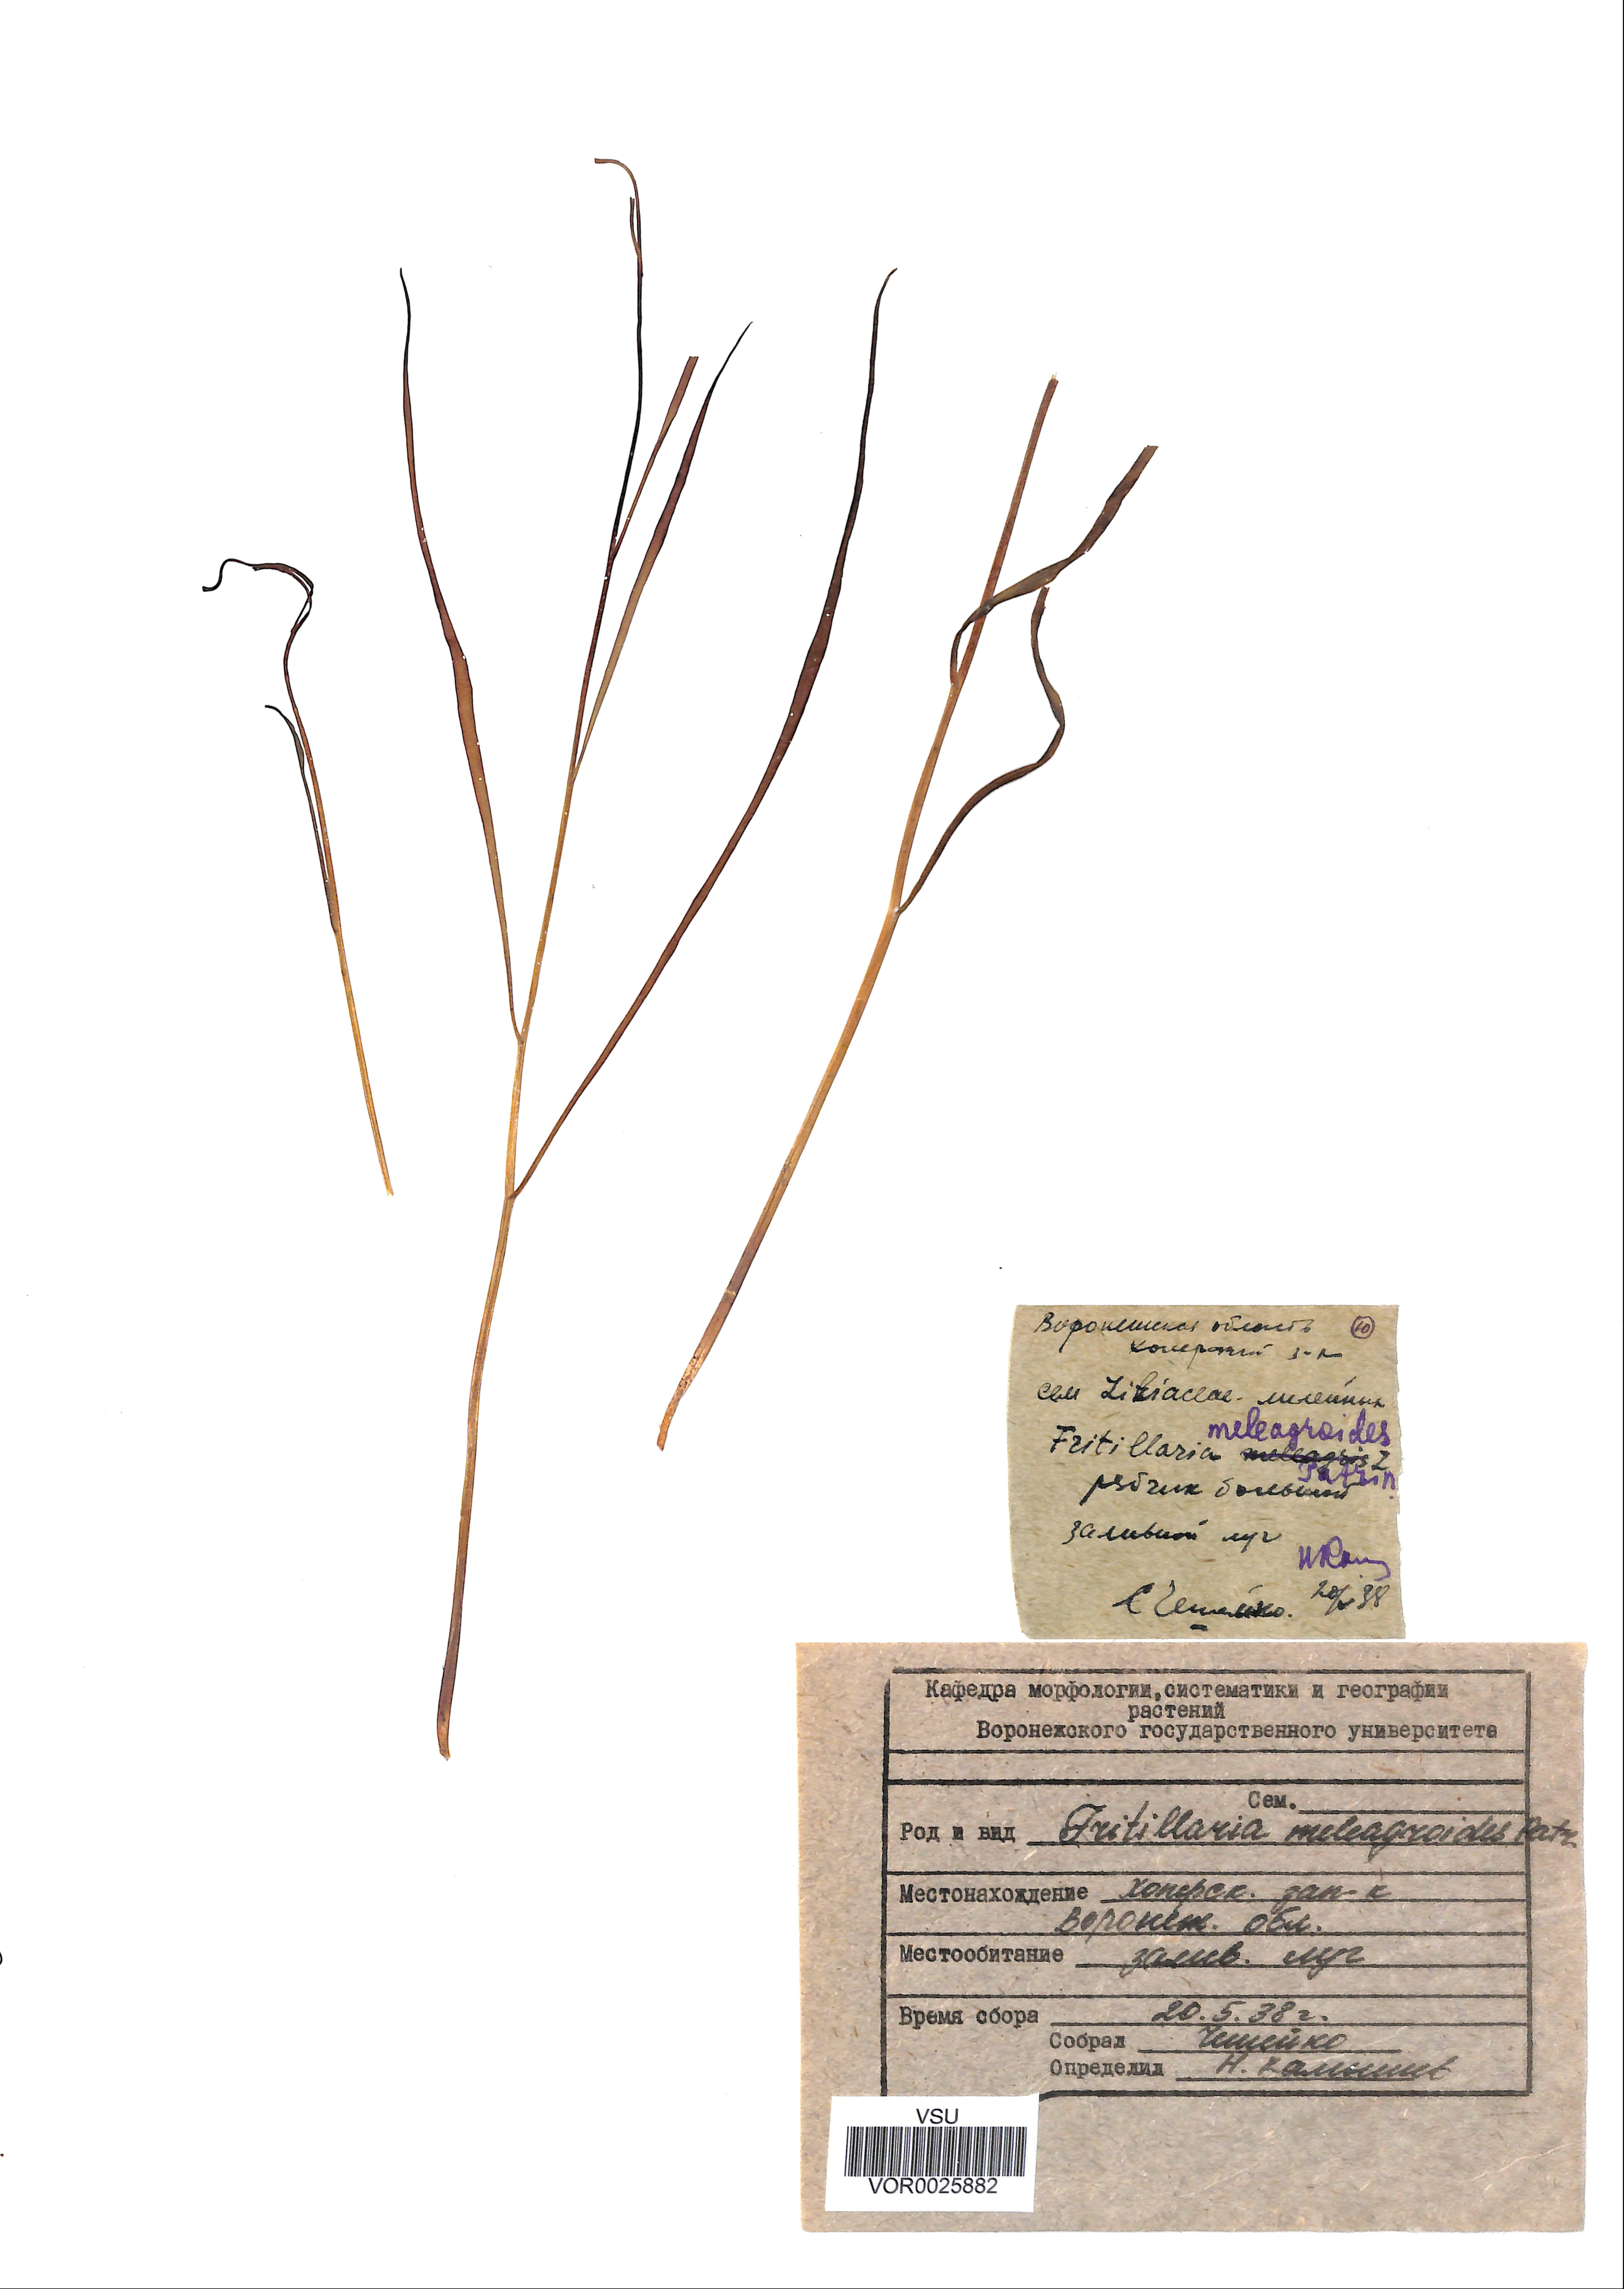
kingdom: Plantae
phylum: Tracheophyta
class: Liliopsida
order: Liliales
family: Liliaceae
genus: Fritillaria
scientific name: Fritillaria meleagroides
